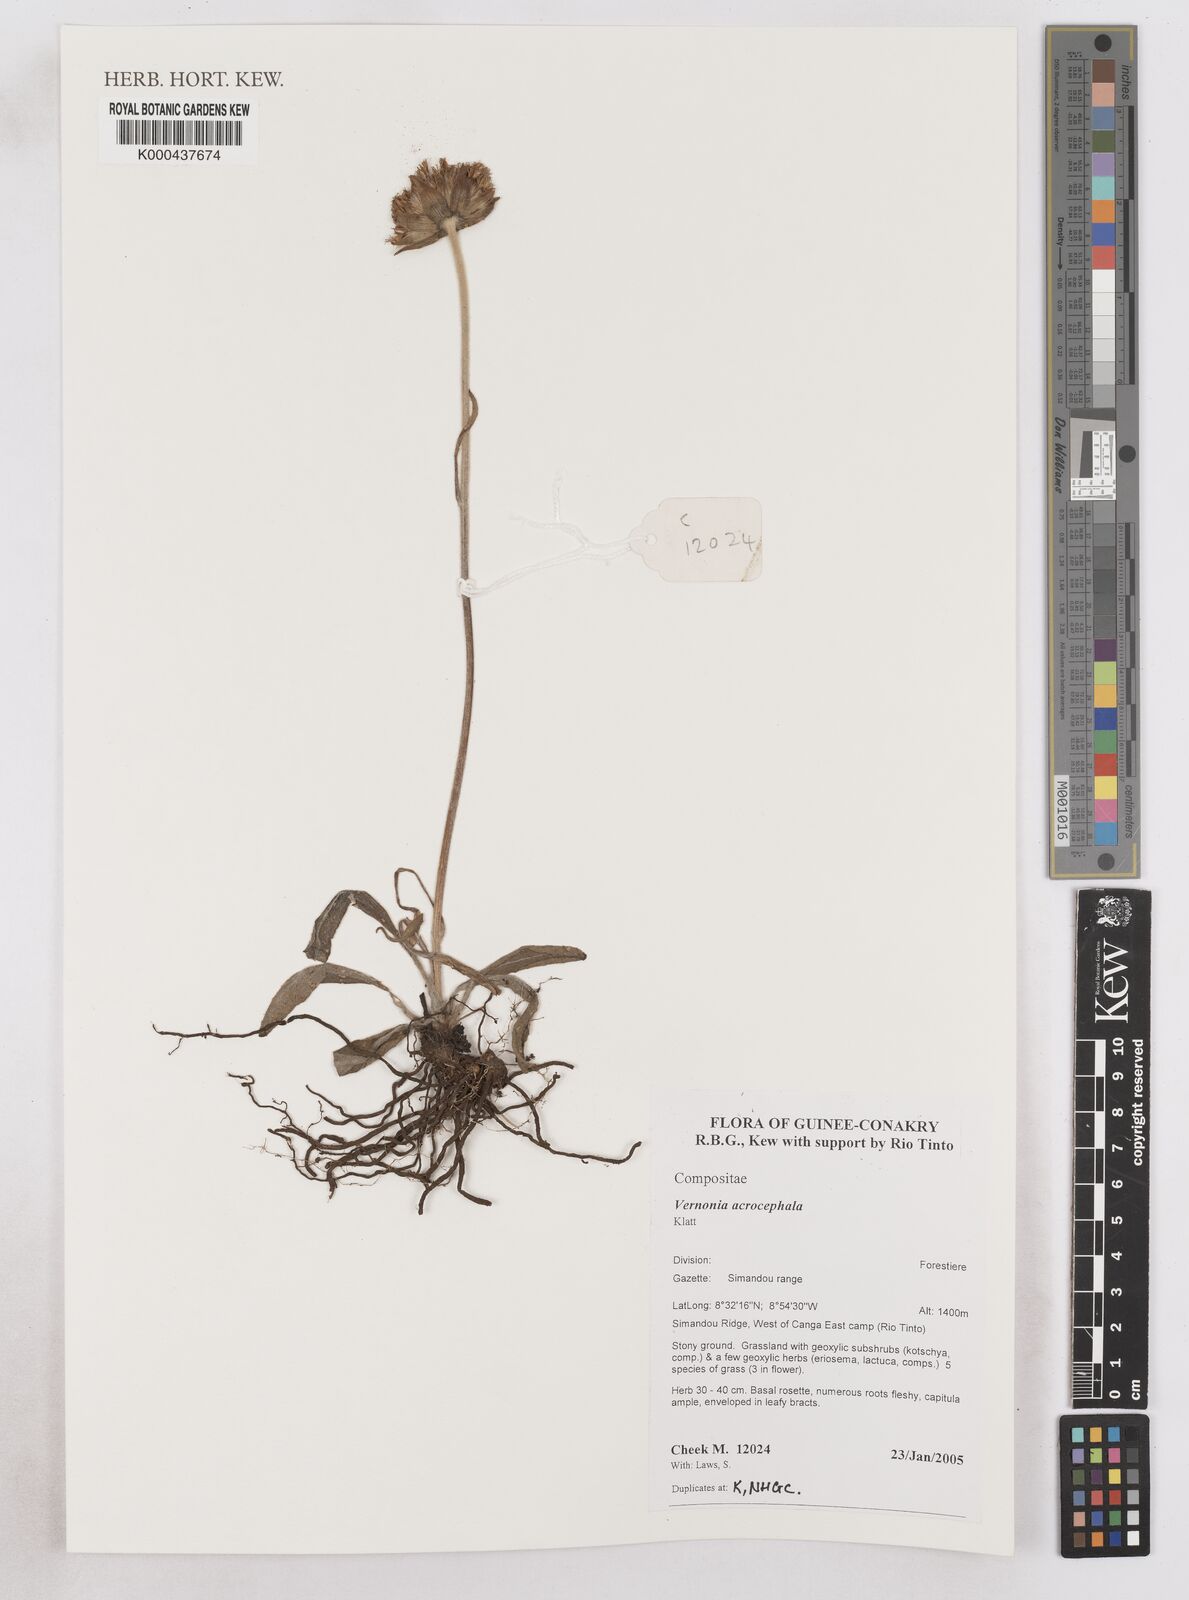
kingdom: Plantae
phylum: Tracheophyta
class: Magnoliopsida
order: Asterales
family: Asteraceae
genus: Vernonella
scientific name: Vernonella acrocephala
